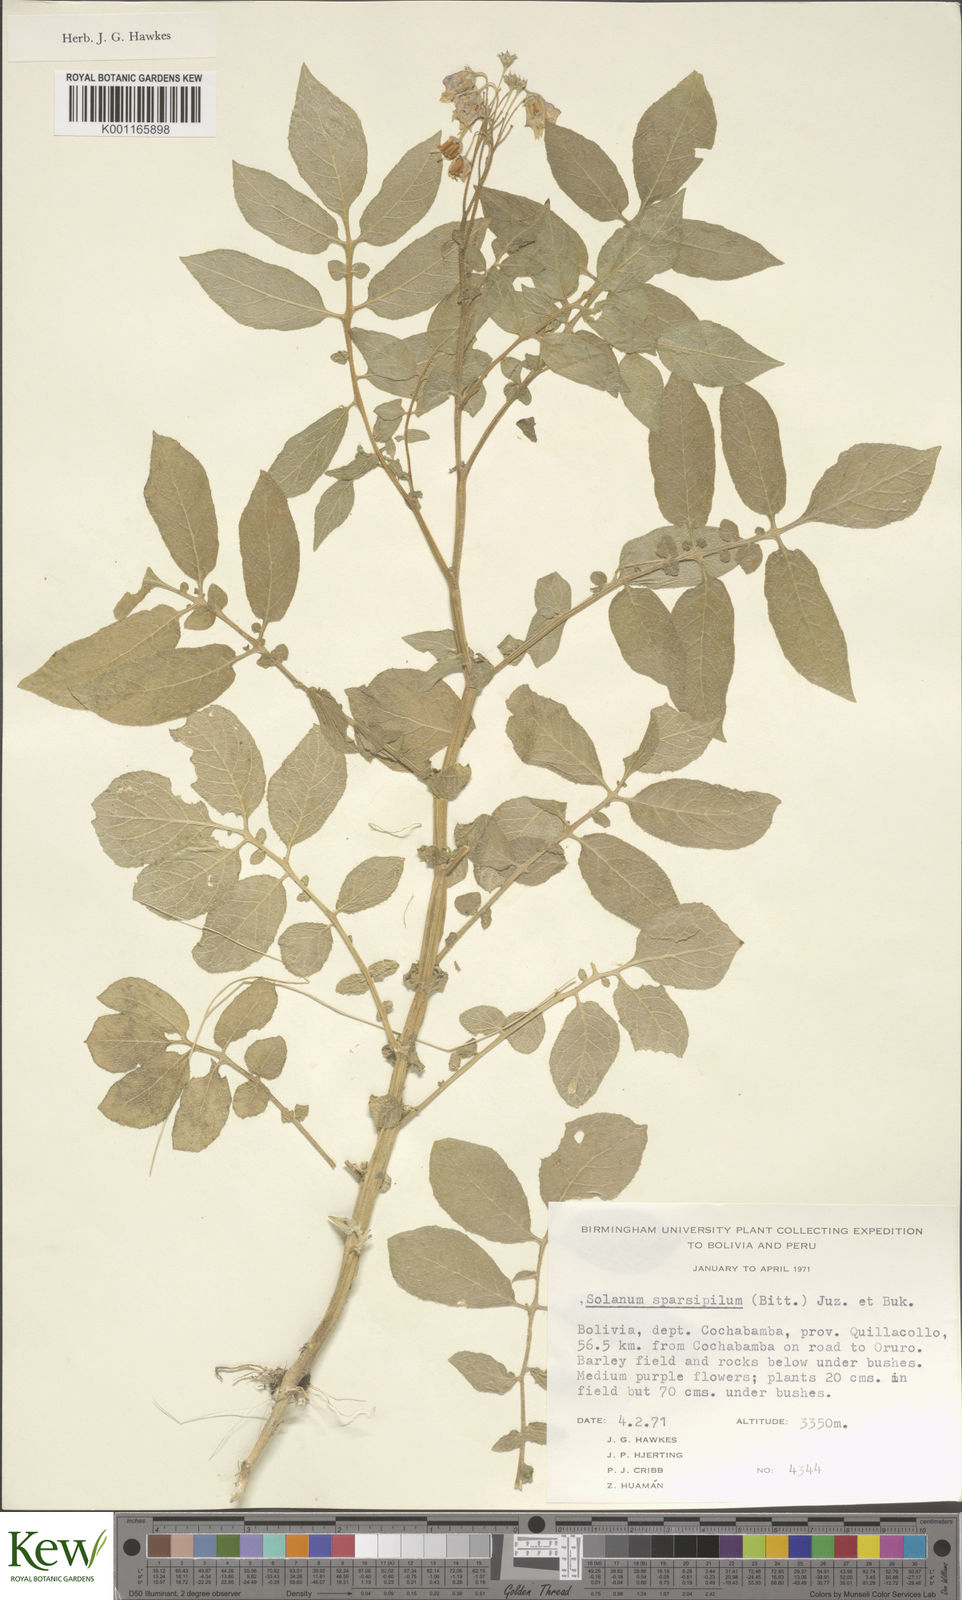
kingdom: Plantae
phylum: Tracheophyta
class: Magnoliopsida
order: Solanales
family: Solanaceae
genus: Solanum
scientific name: Solanum brevicaule
